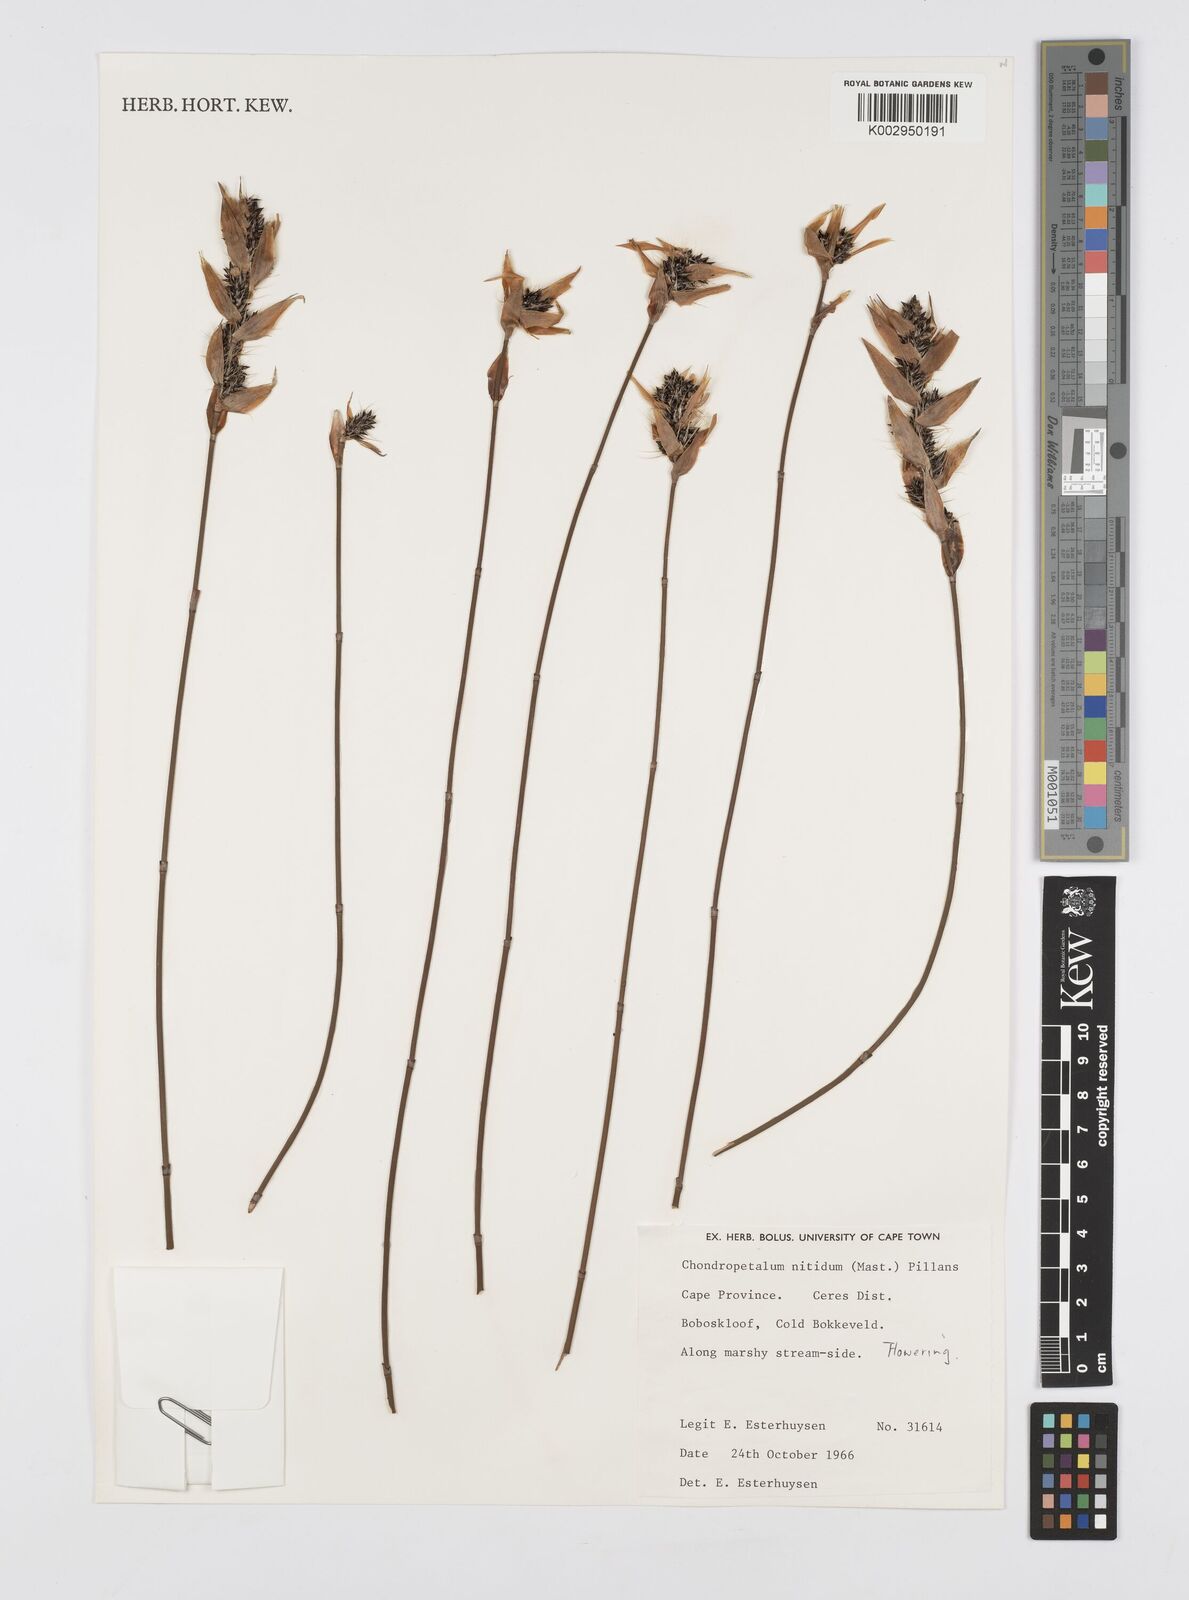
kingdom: Plantae
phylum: Tracheophyta
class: Liliopsida
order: Poales
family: Restionaceae
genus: Askidiosperma
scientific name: Askidiosperma nitidum
